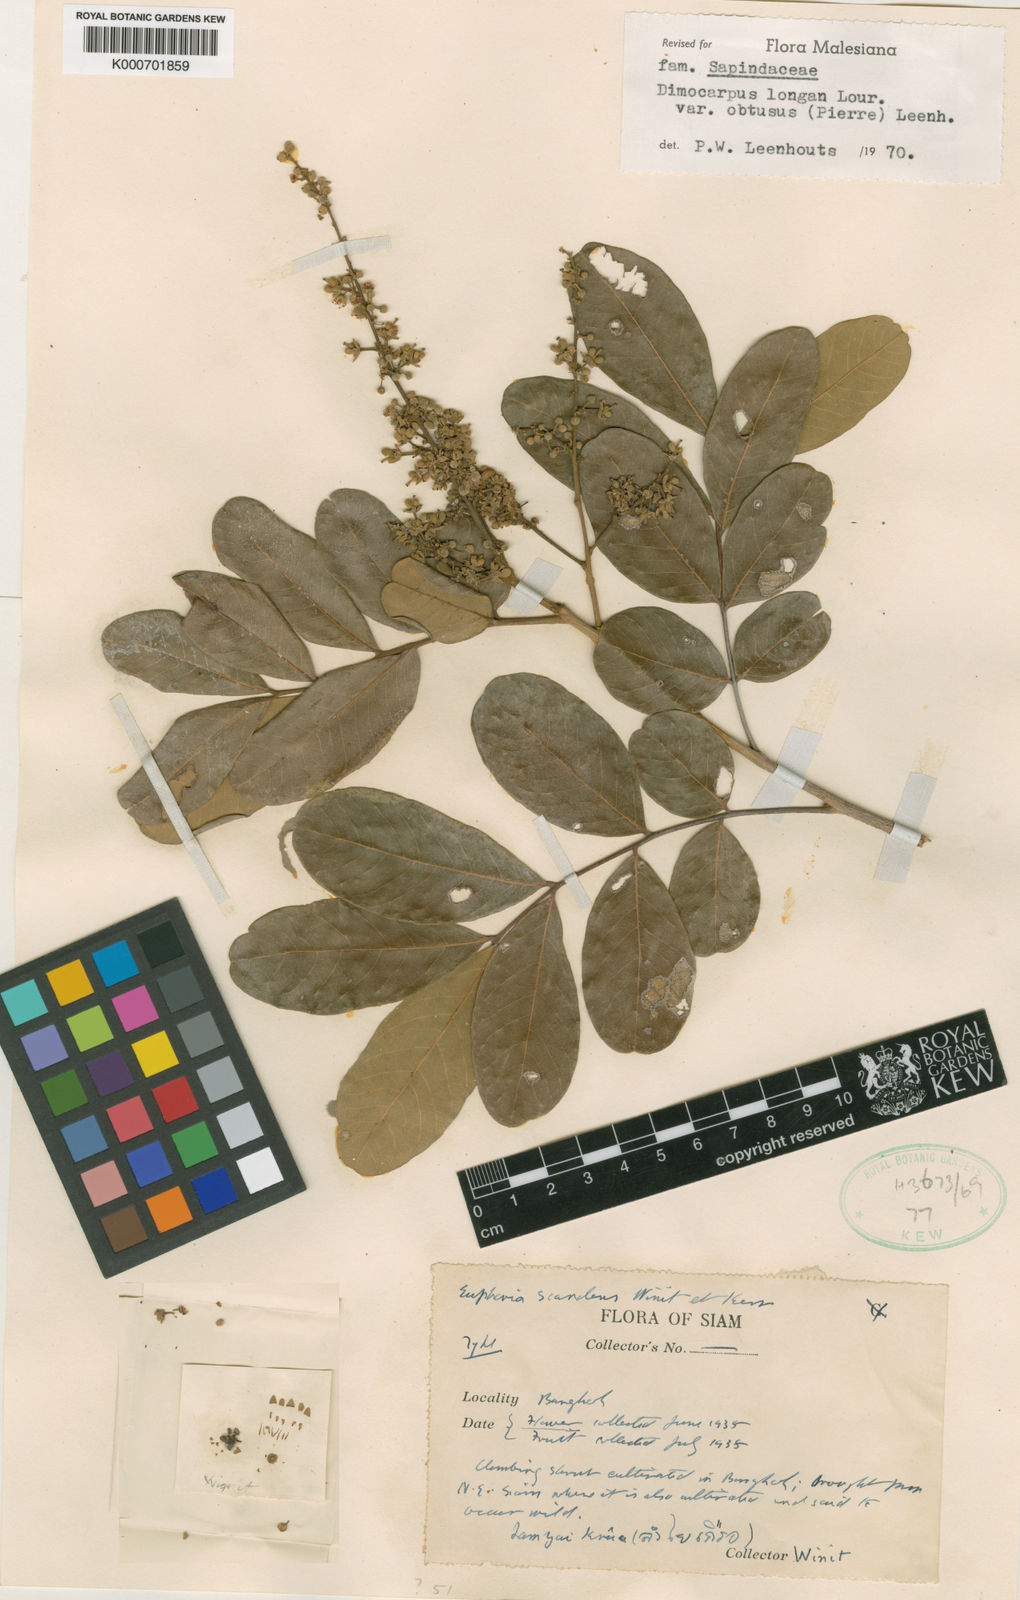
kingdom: Plantae
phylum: Tracheophyta
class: Magnoliopsida
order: Sapindales
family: Sapindaceae
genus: Dimocarpus
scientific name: Dimocarpus obtusus
